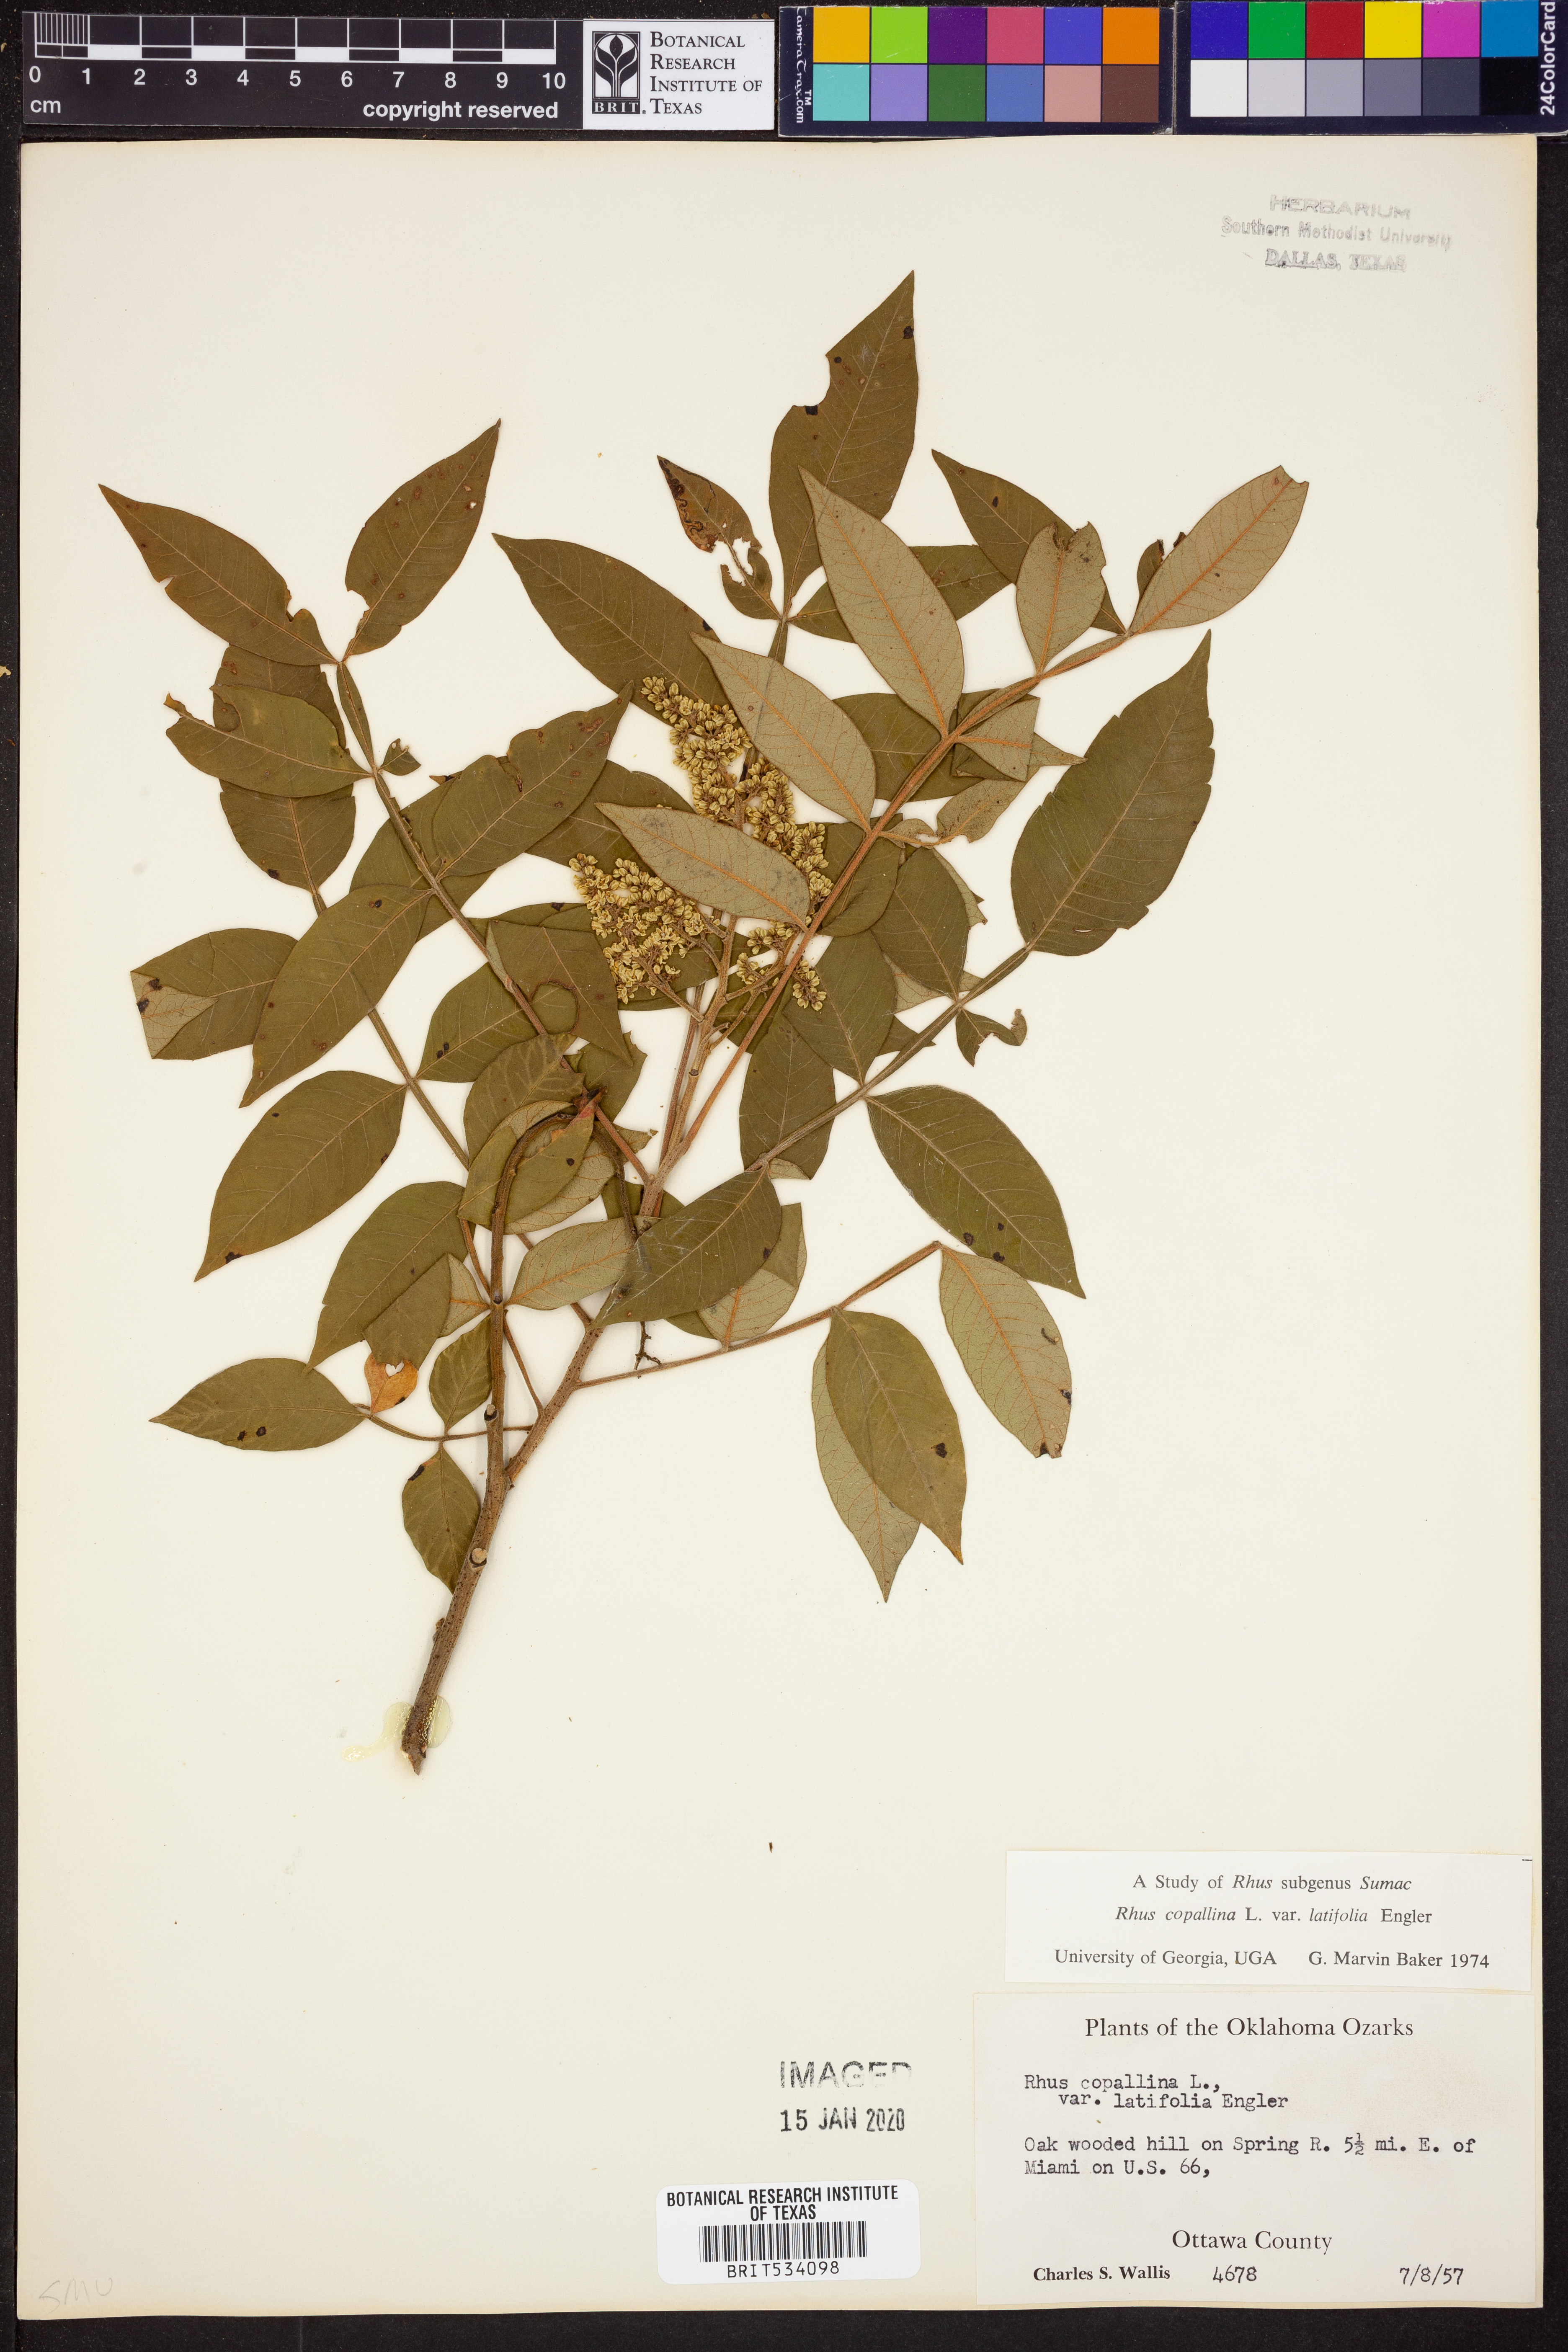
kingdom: Plantae
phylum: Tracheophyta
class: Magnoliopsida
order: Sapindales
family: Anacardiaceae
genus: Rhus
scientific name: Rhus copallina
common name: Shining sumac
